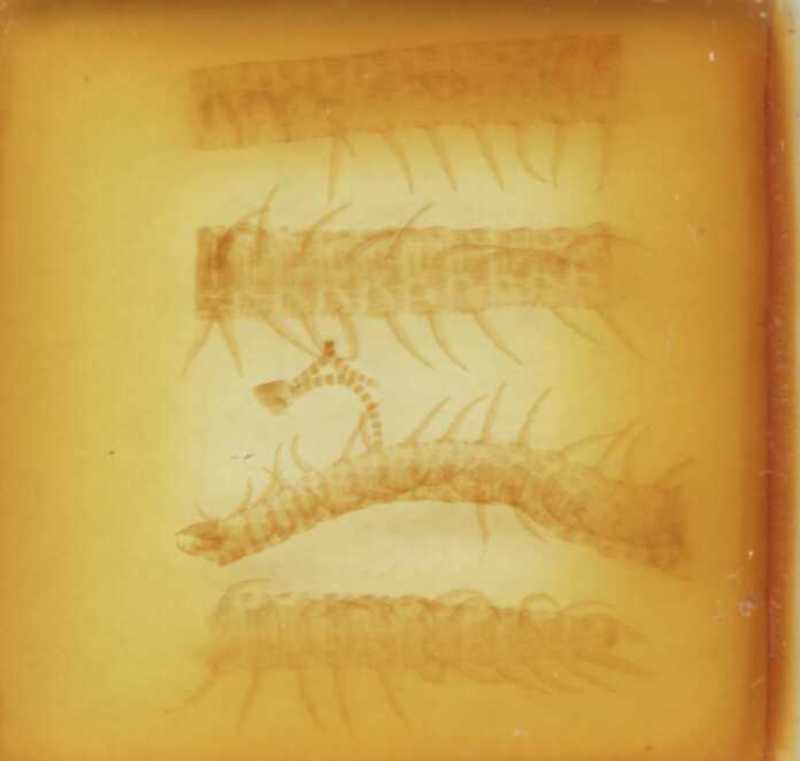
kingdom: Animalia
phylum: Arthropoda
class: Chilopoda
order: Geophilomorpha
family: Linotaeniidae
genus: Strigamia
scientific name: Strigamia crassipes
